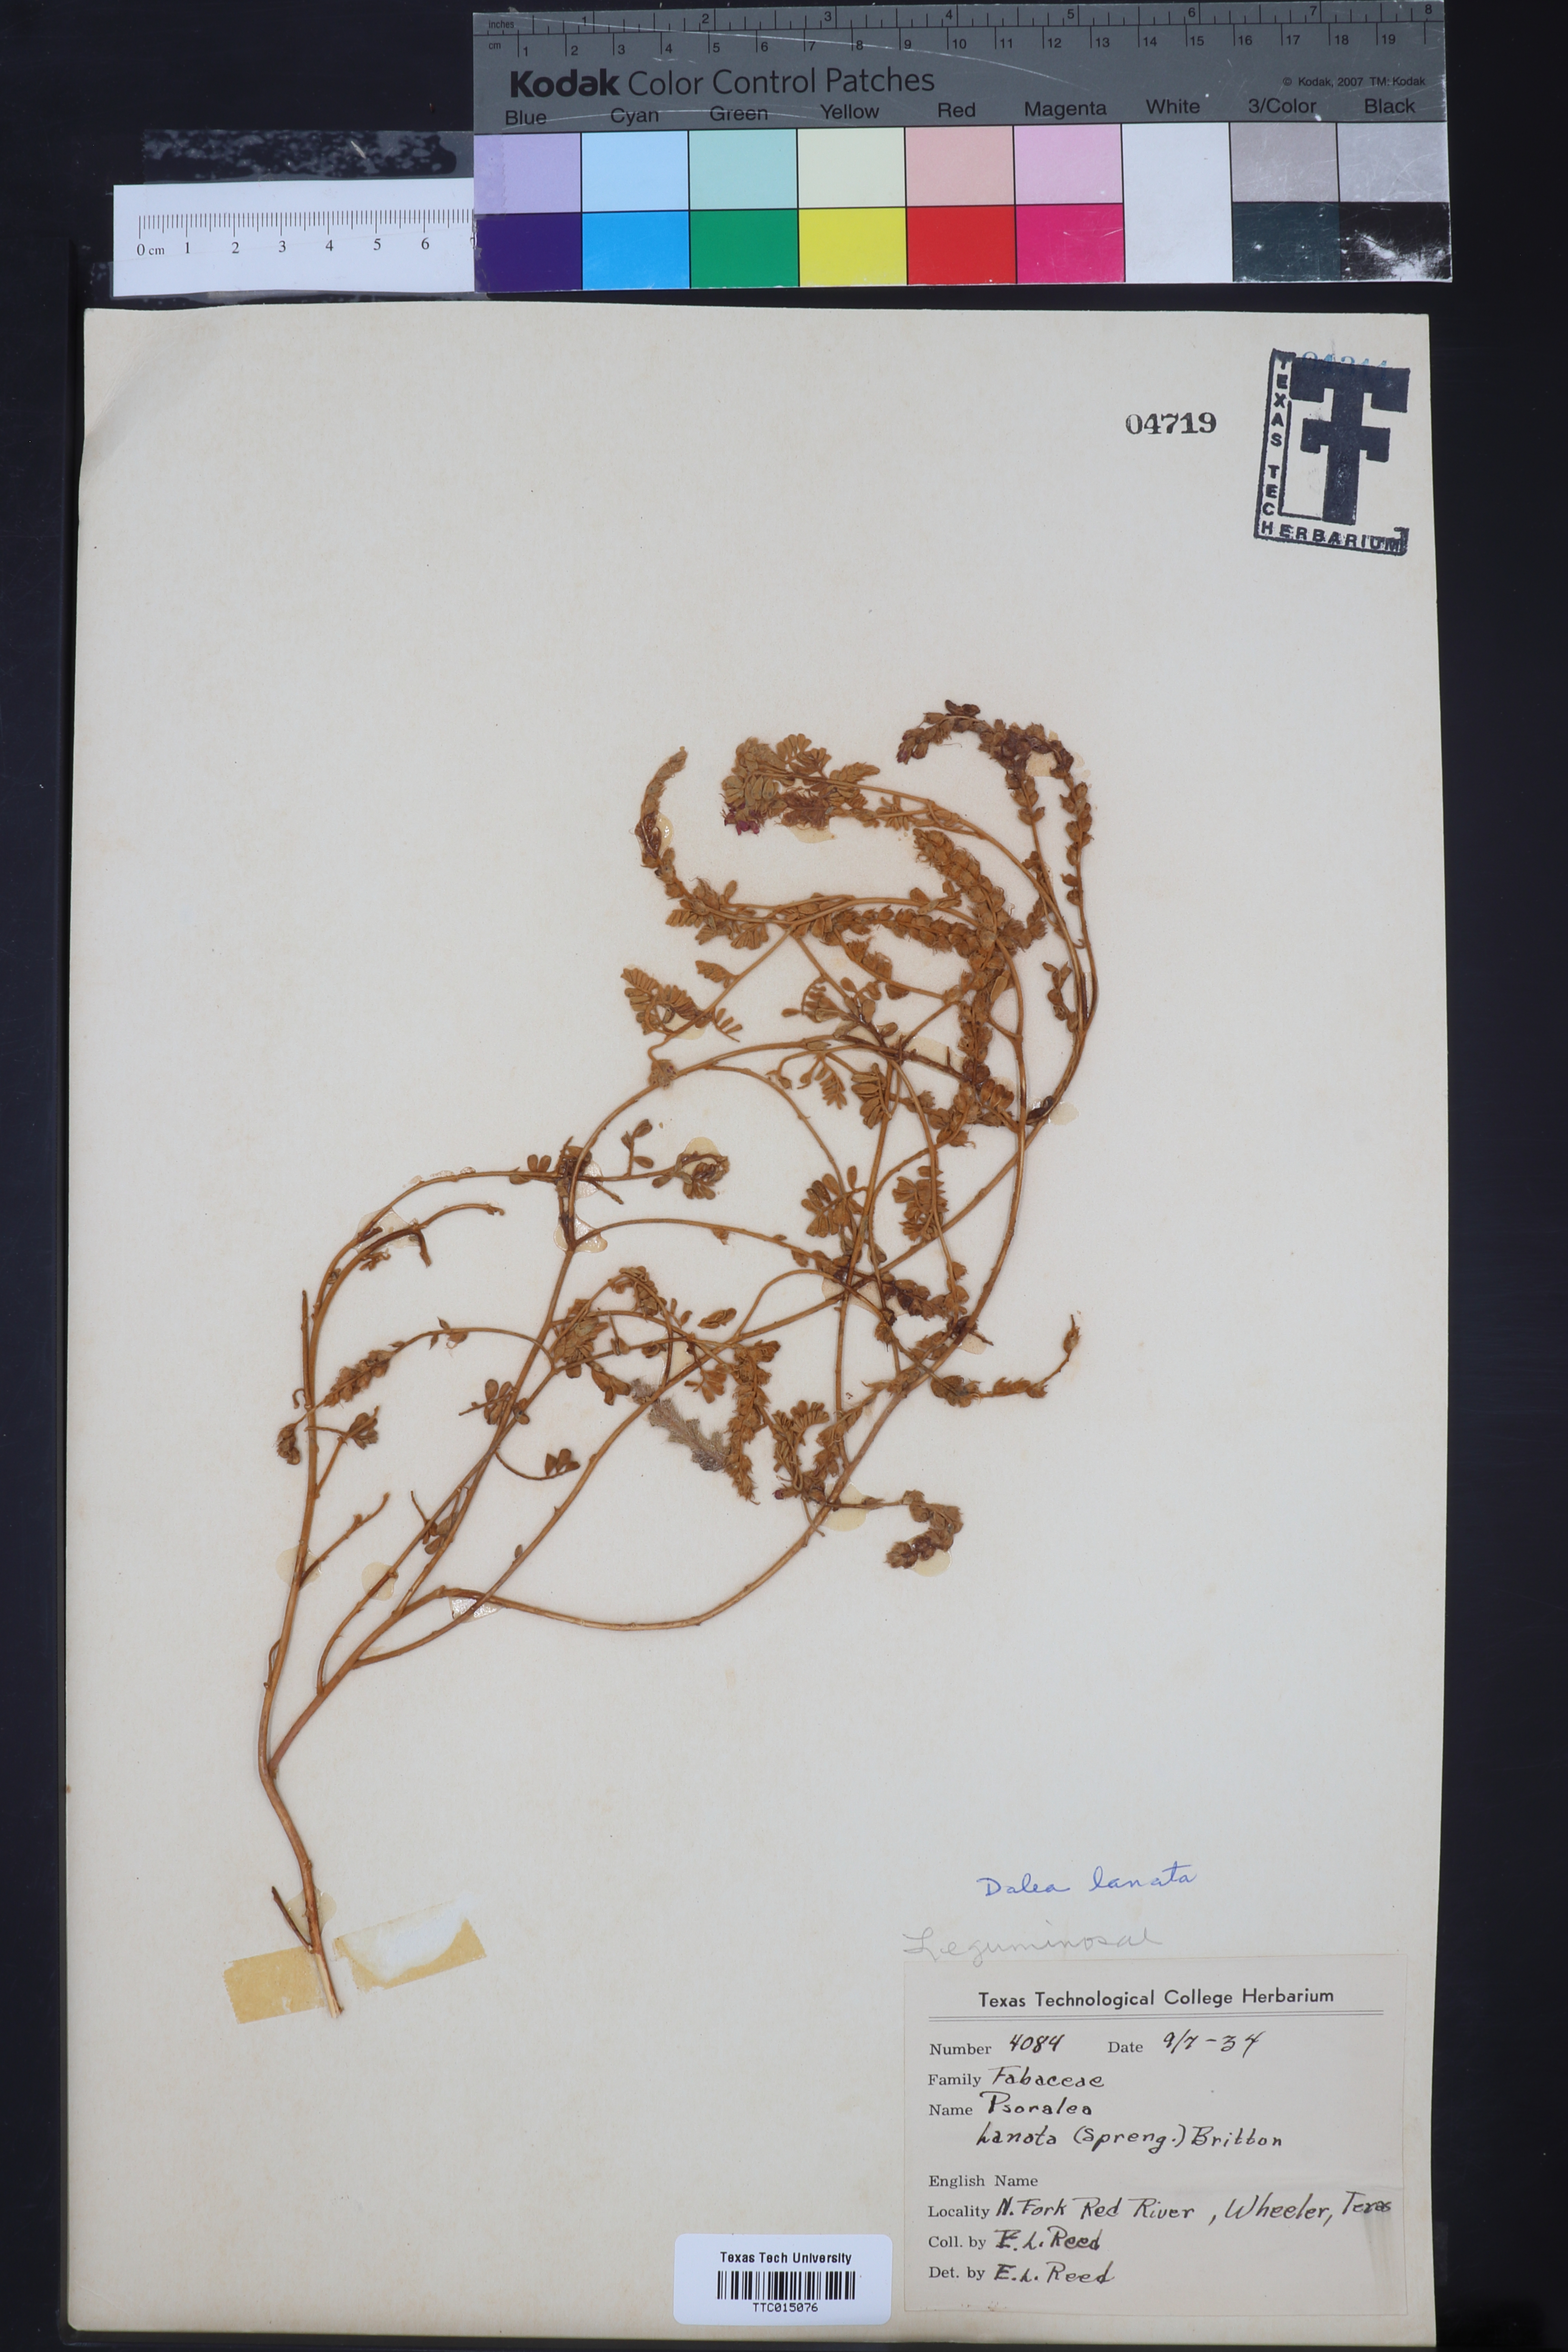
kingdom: Plantae
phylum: Tracheophyta
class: Magnoliopsida
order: Fabales
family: Fabaceae
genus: Dalea
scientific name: Dalea lanata
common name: Woolly dalea
